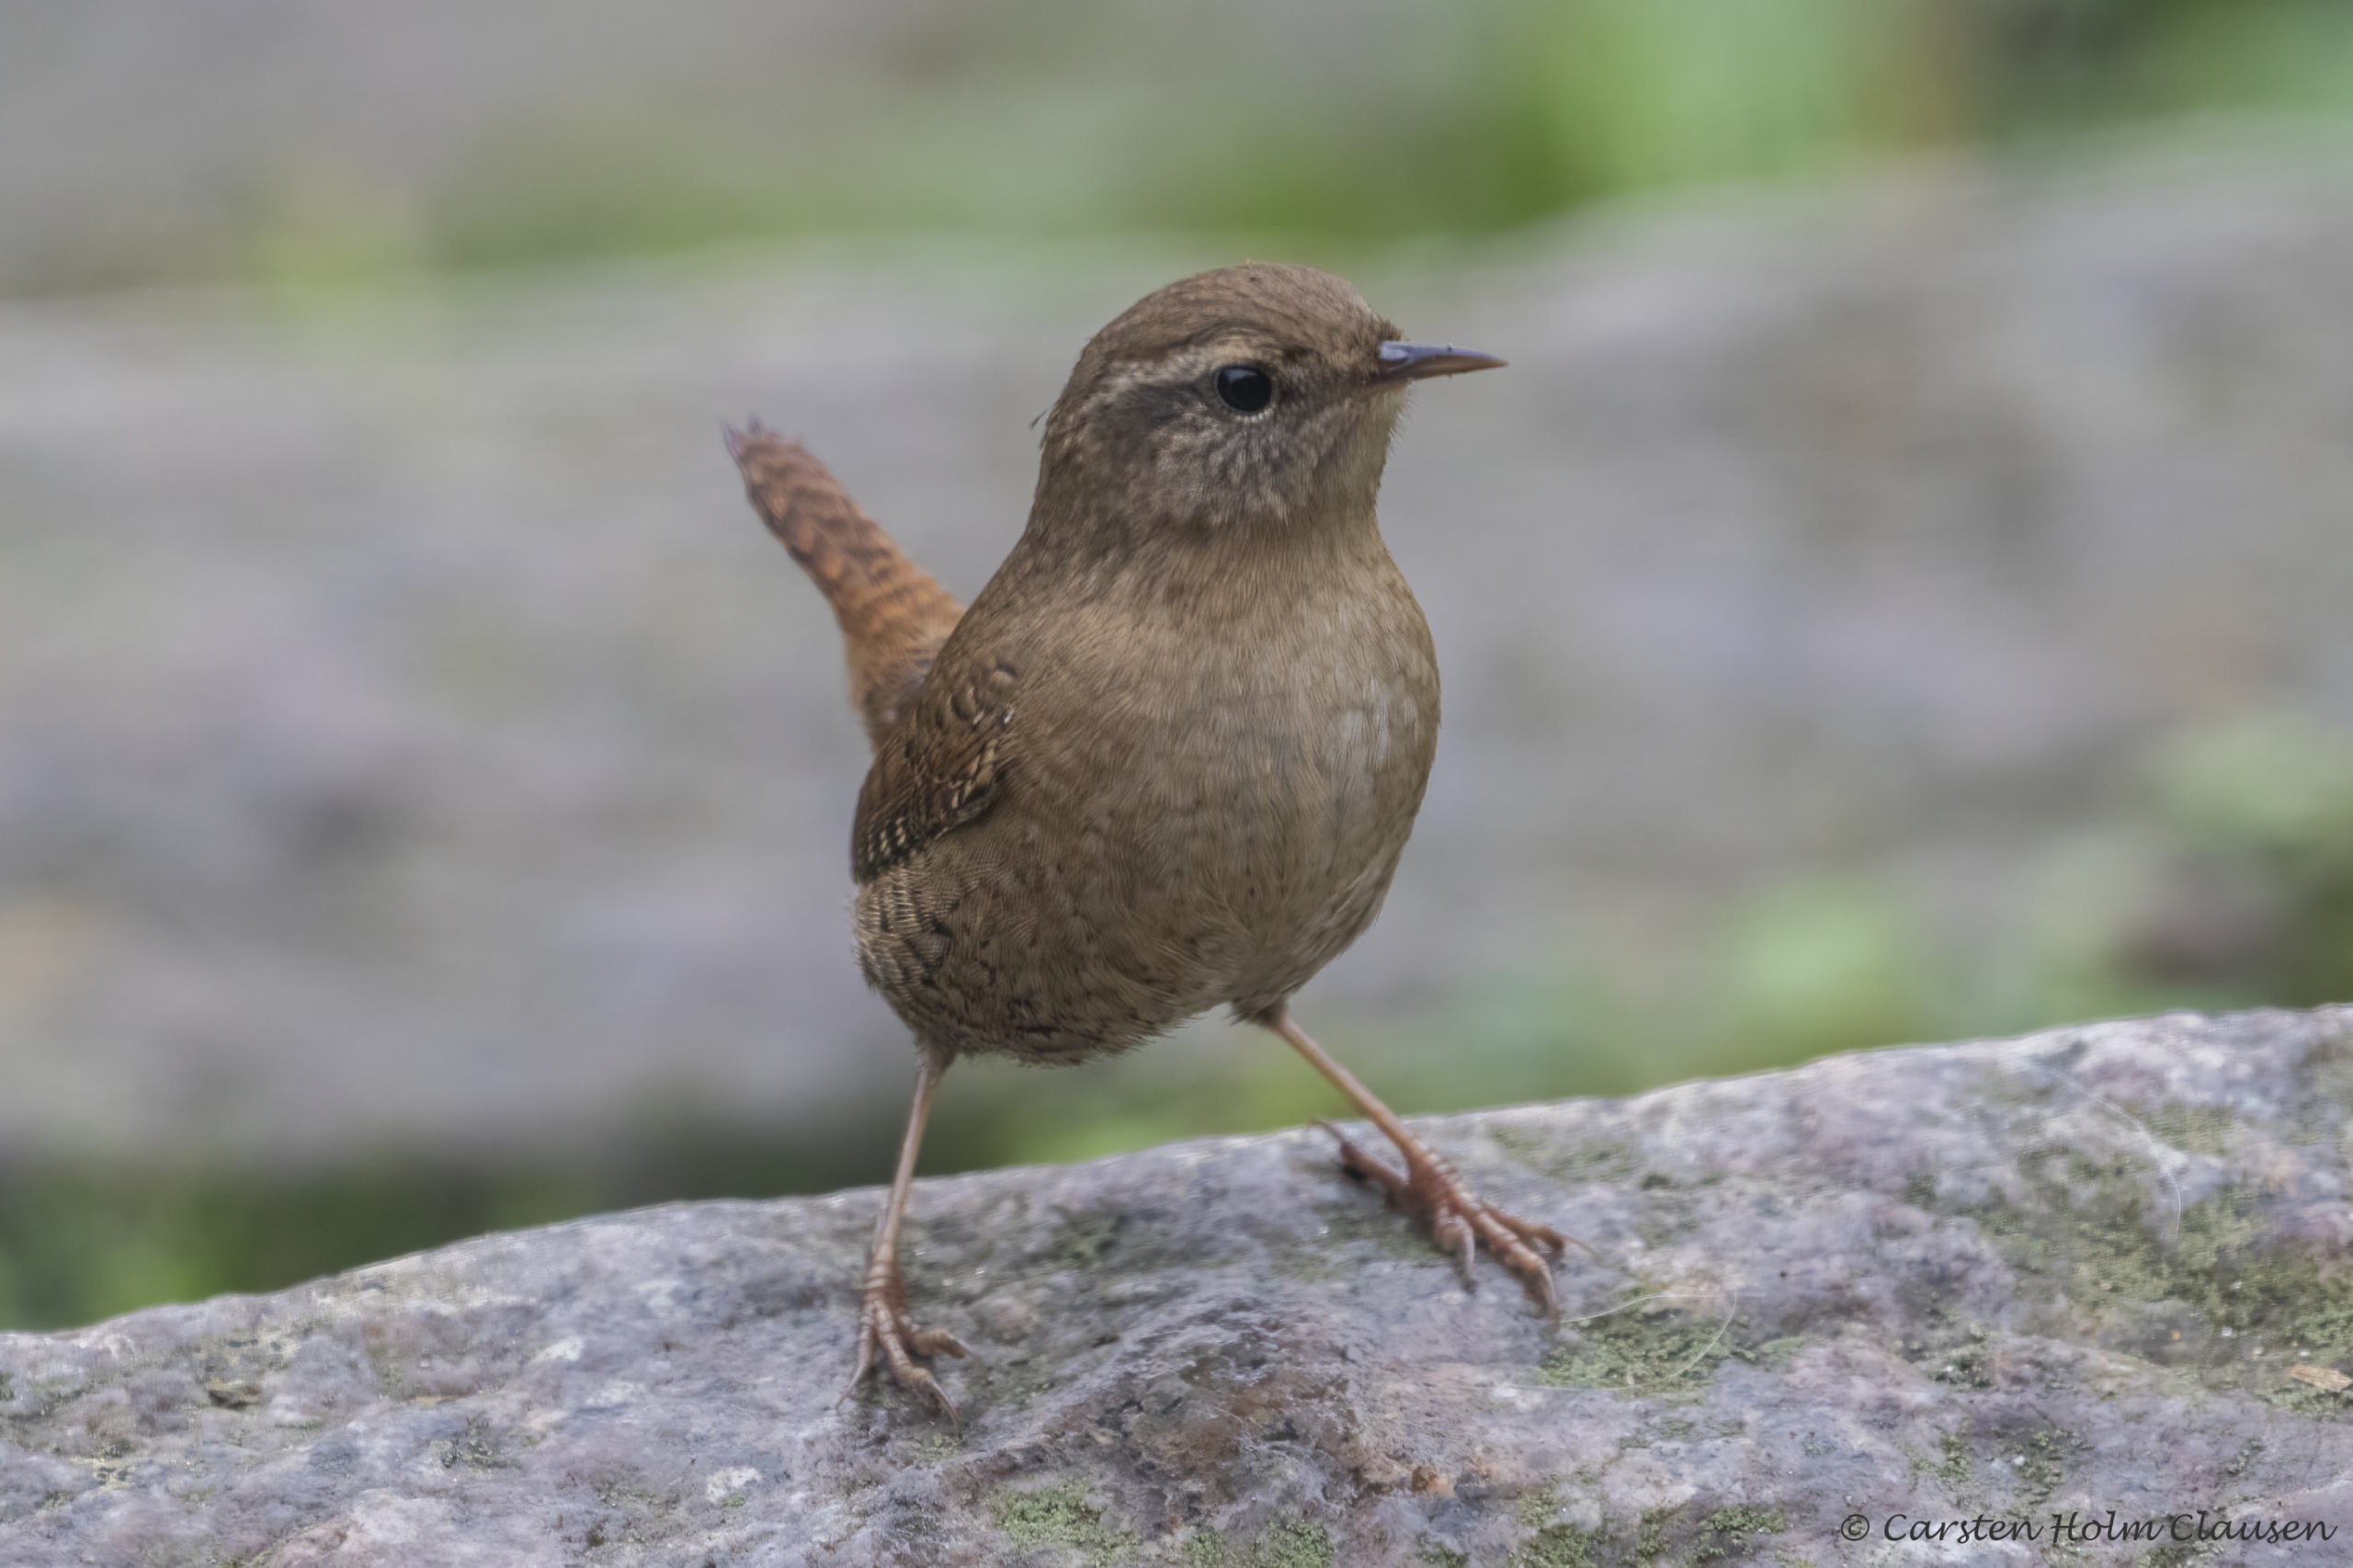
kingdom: Animalia
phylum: Chordata
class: Aves
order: Passeriformes
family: Troglodytidae
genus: Troglodytes
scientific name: Troglodytes troglodytes
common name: Gærdesmutte
